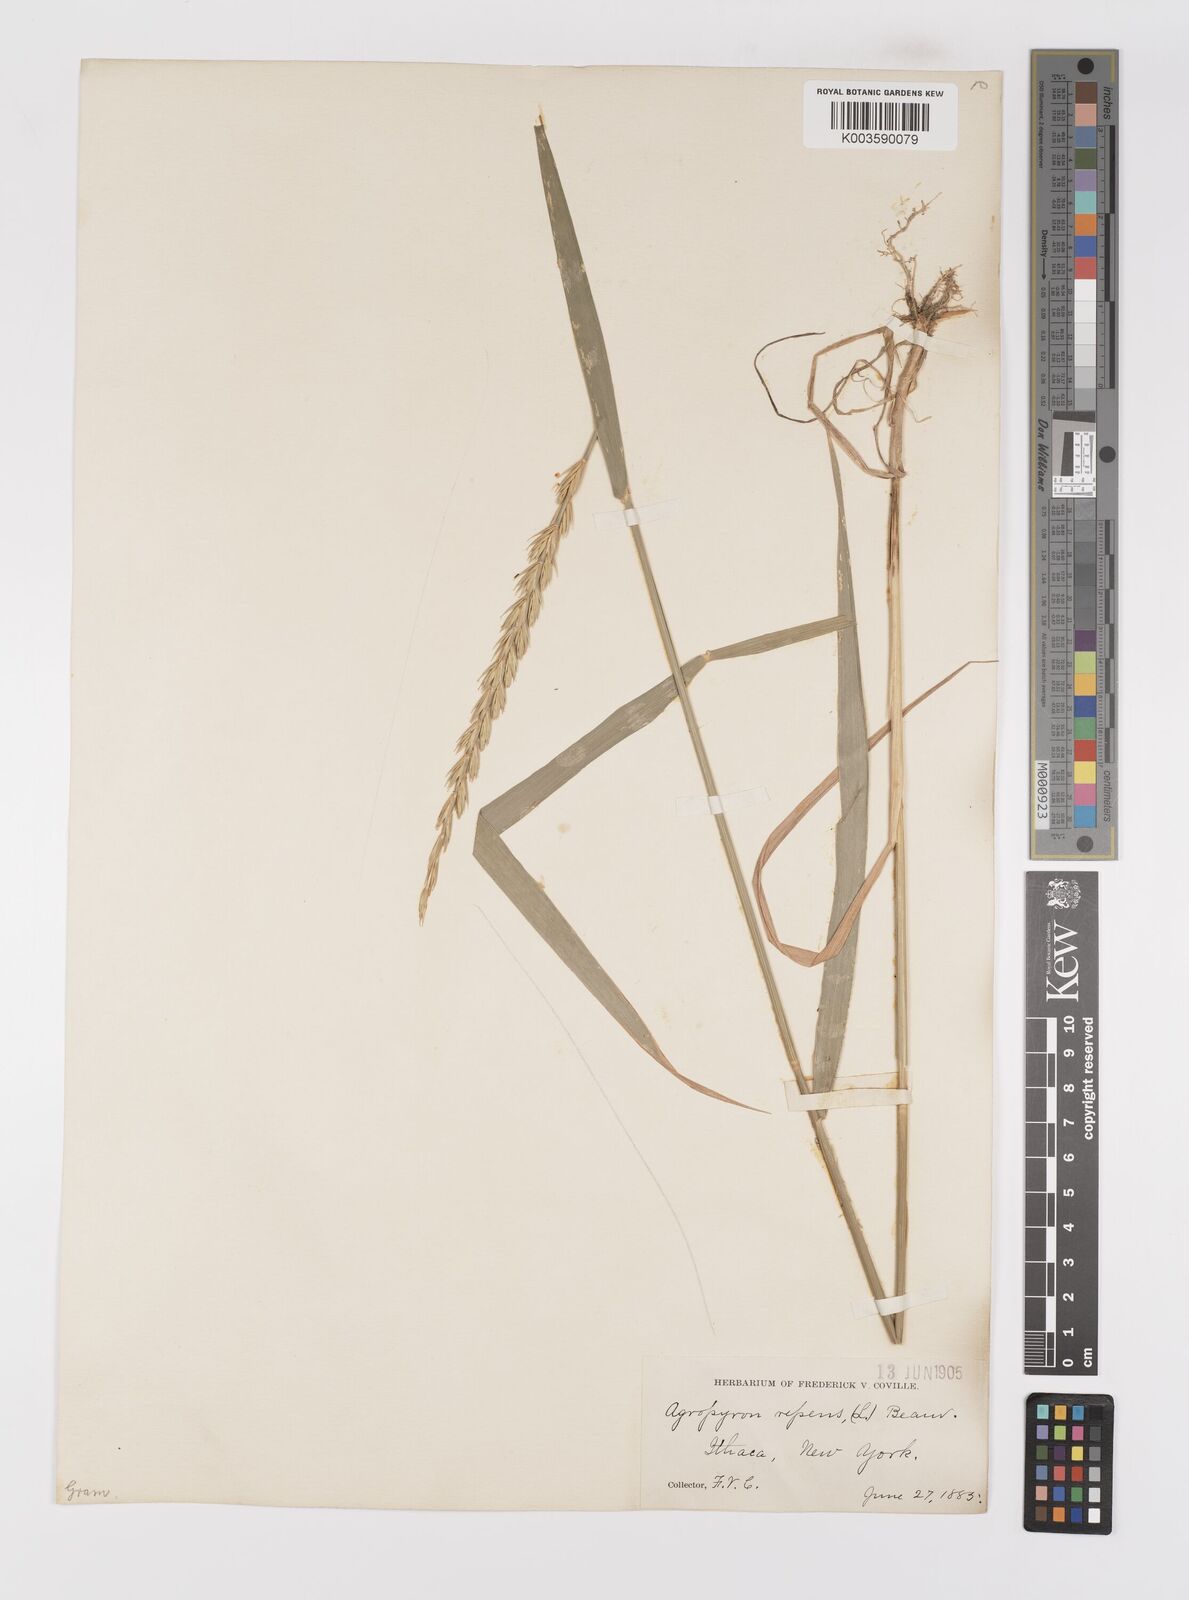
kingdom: Plantae
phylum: Tracheophyta
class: Liliopsida
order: Poales
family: Poaceae
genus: Elymus
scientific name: Elymus repens
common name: Quackgrass
